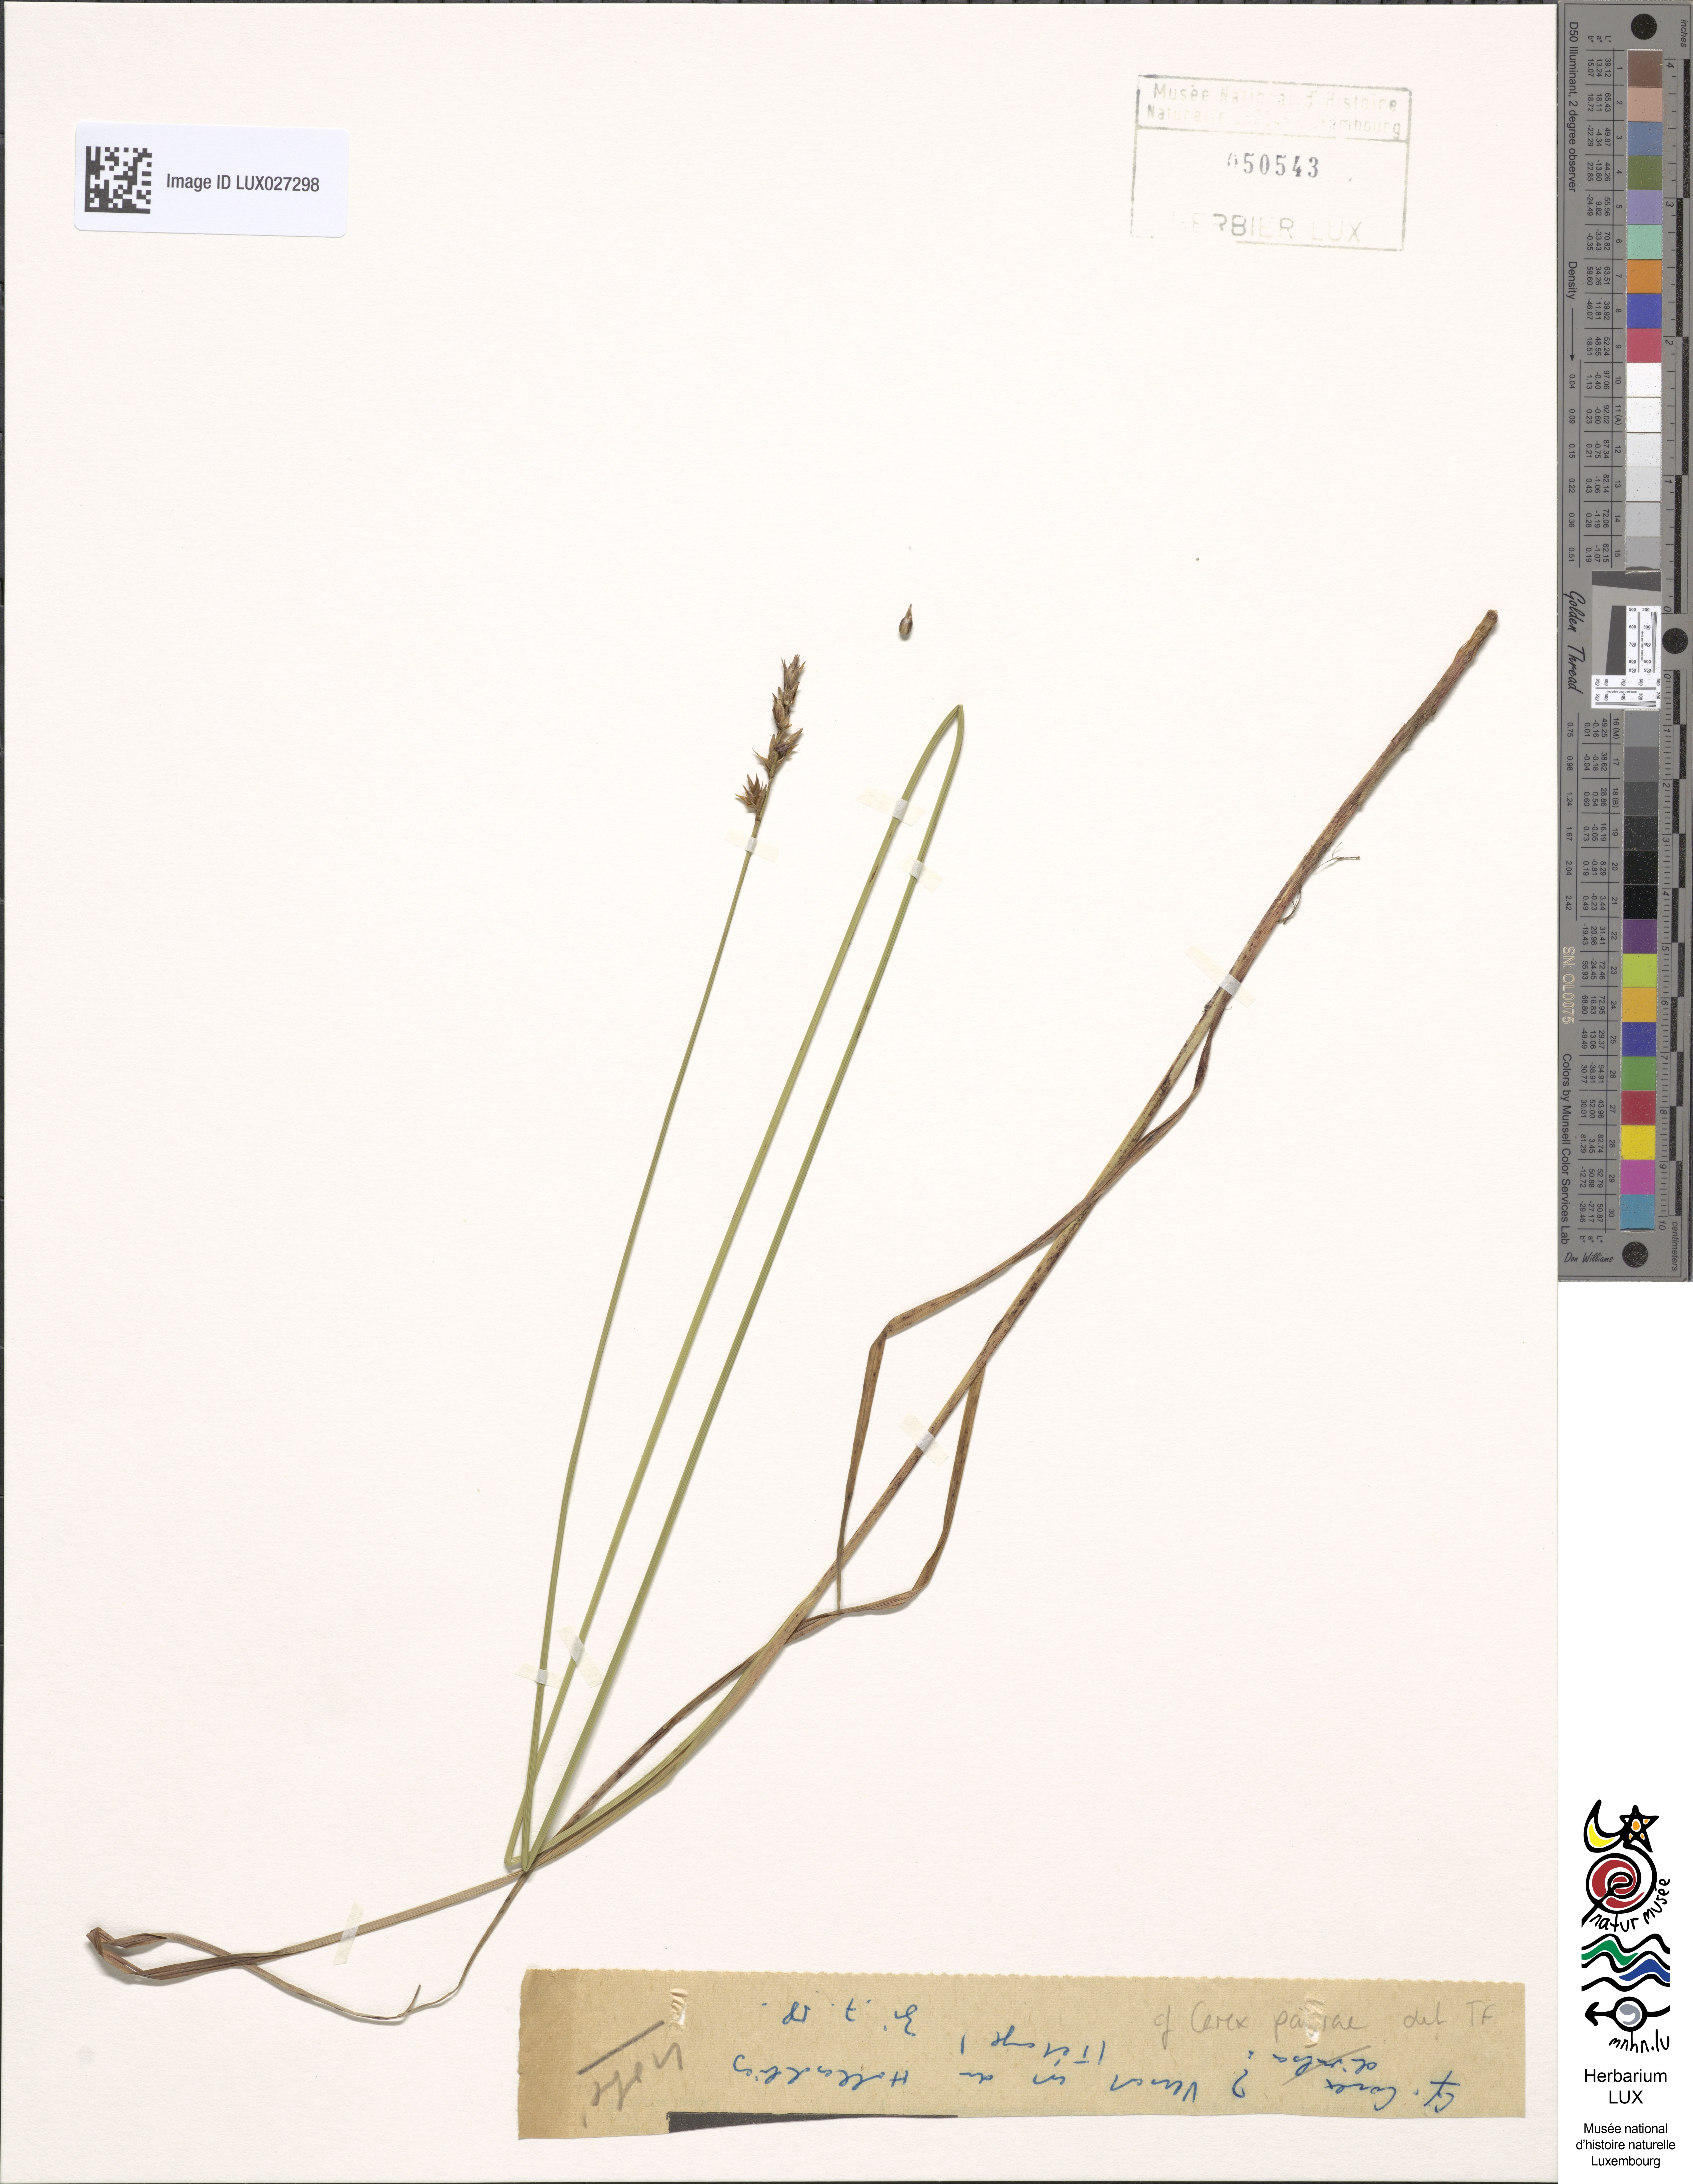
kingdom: Plantae
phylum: Tracheophyta
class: Liliopsida
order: Poales
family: Cyperaceae
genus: Carex
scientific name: Carex pairae
